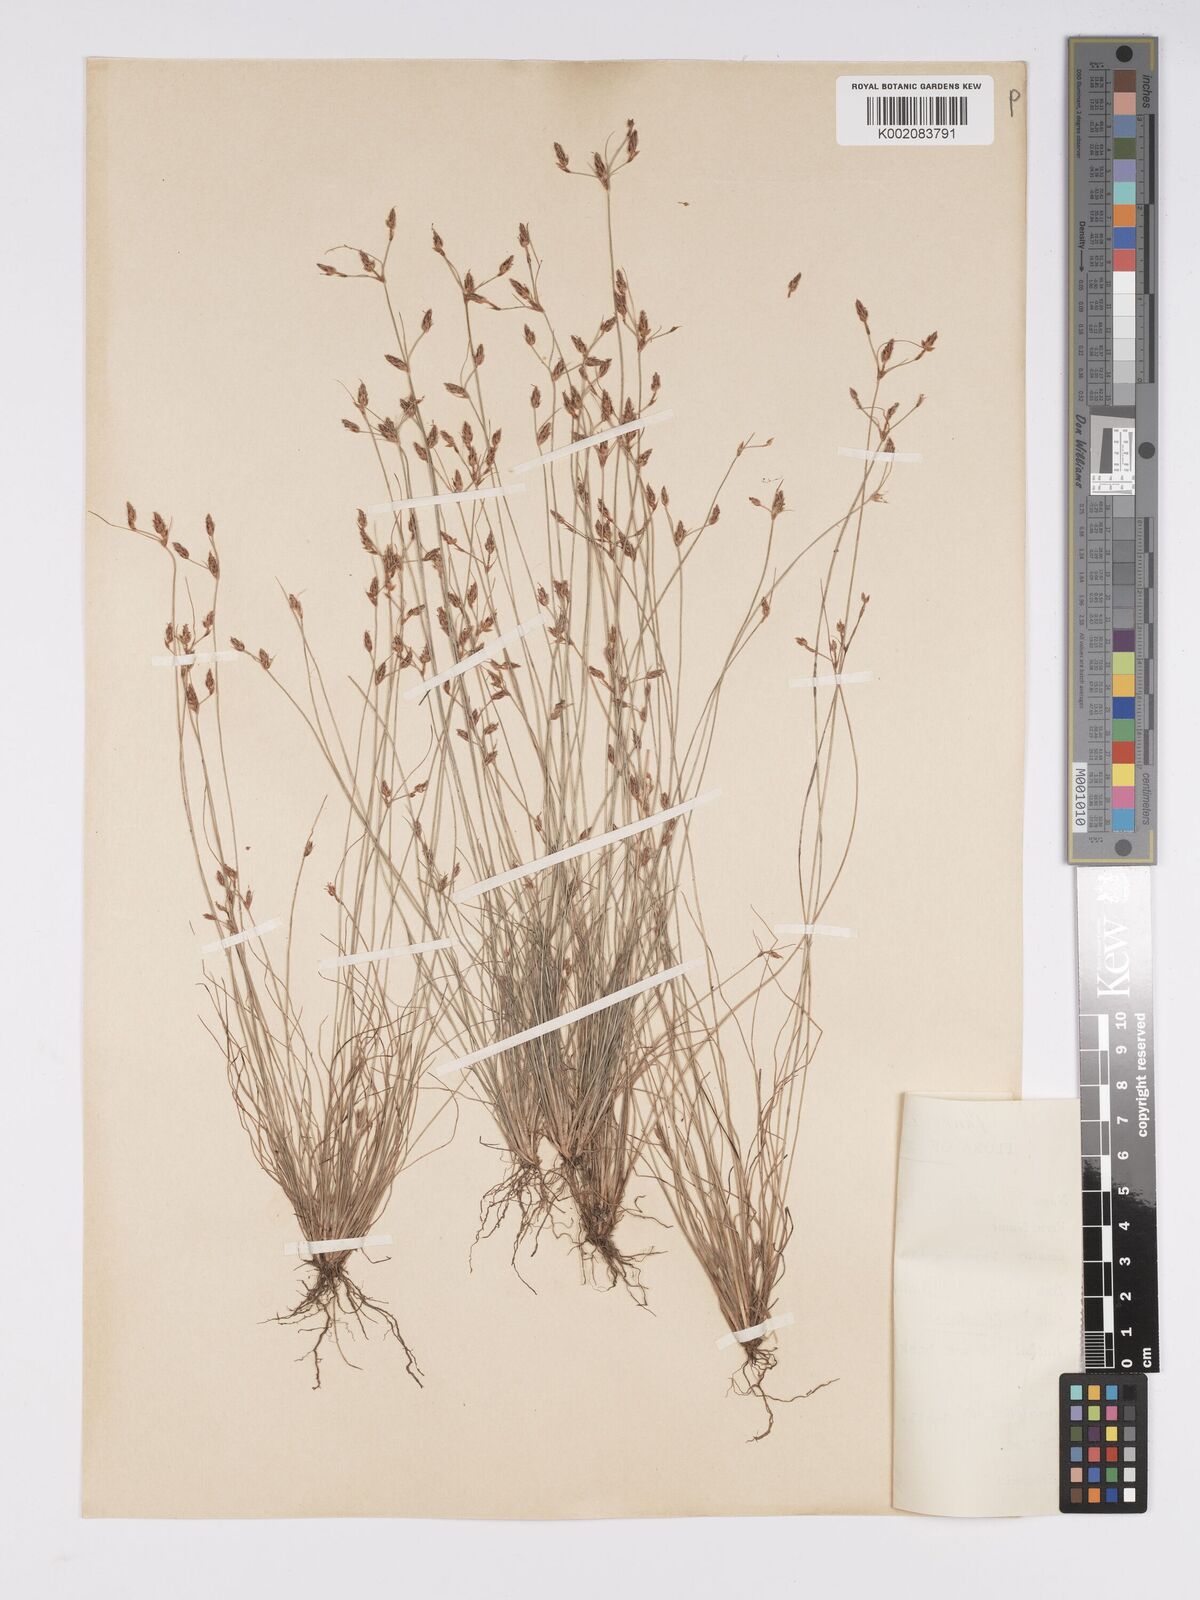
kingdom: Plantae
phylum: Tracheophyta
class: Liliopsida
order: Poales
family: Cyperaceae
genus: Bulbostylis
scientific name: Bulbostylis hispidula
